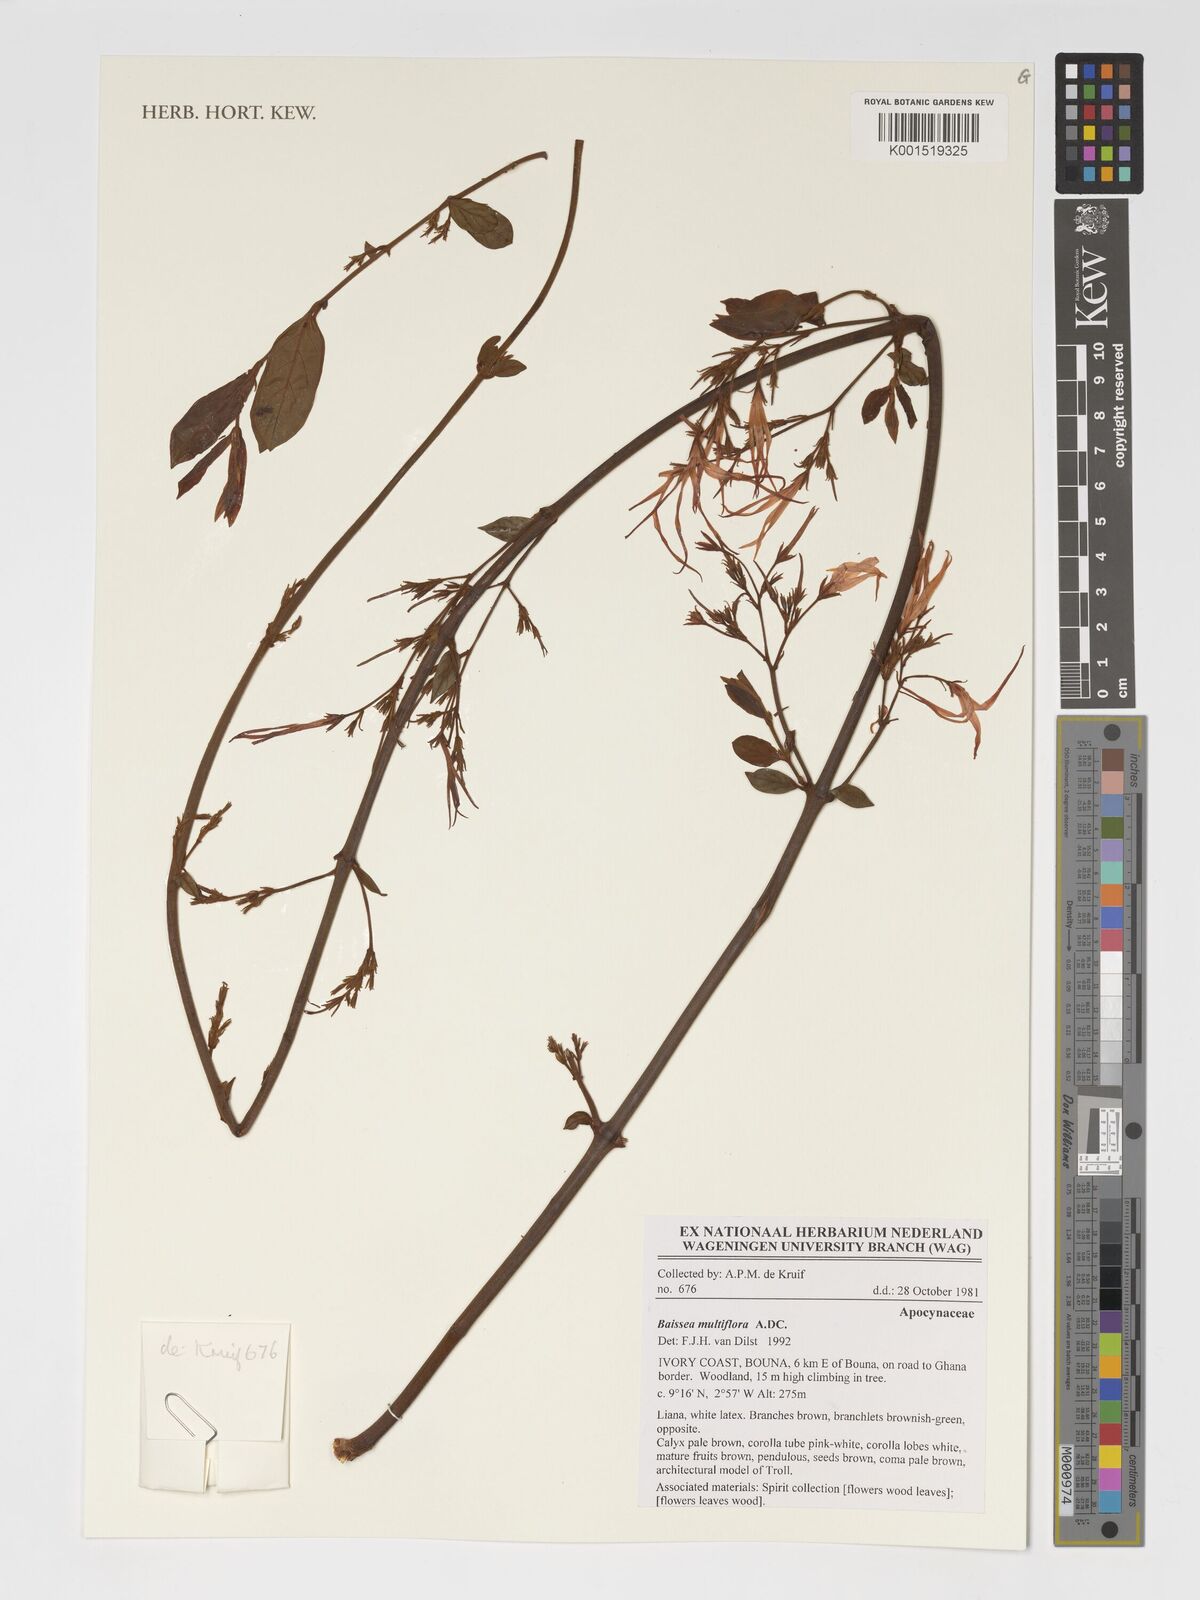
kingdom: Plantae
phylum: Tracheophyta
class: Magnoliopsida
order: Gentianales
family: Apocynaceae
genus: Baissea
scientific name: Baissea multiflora
